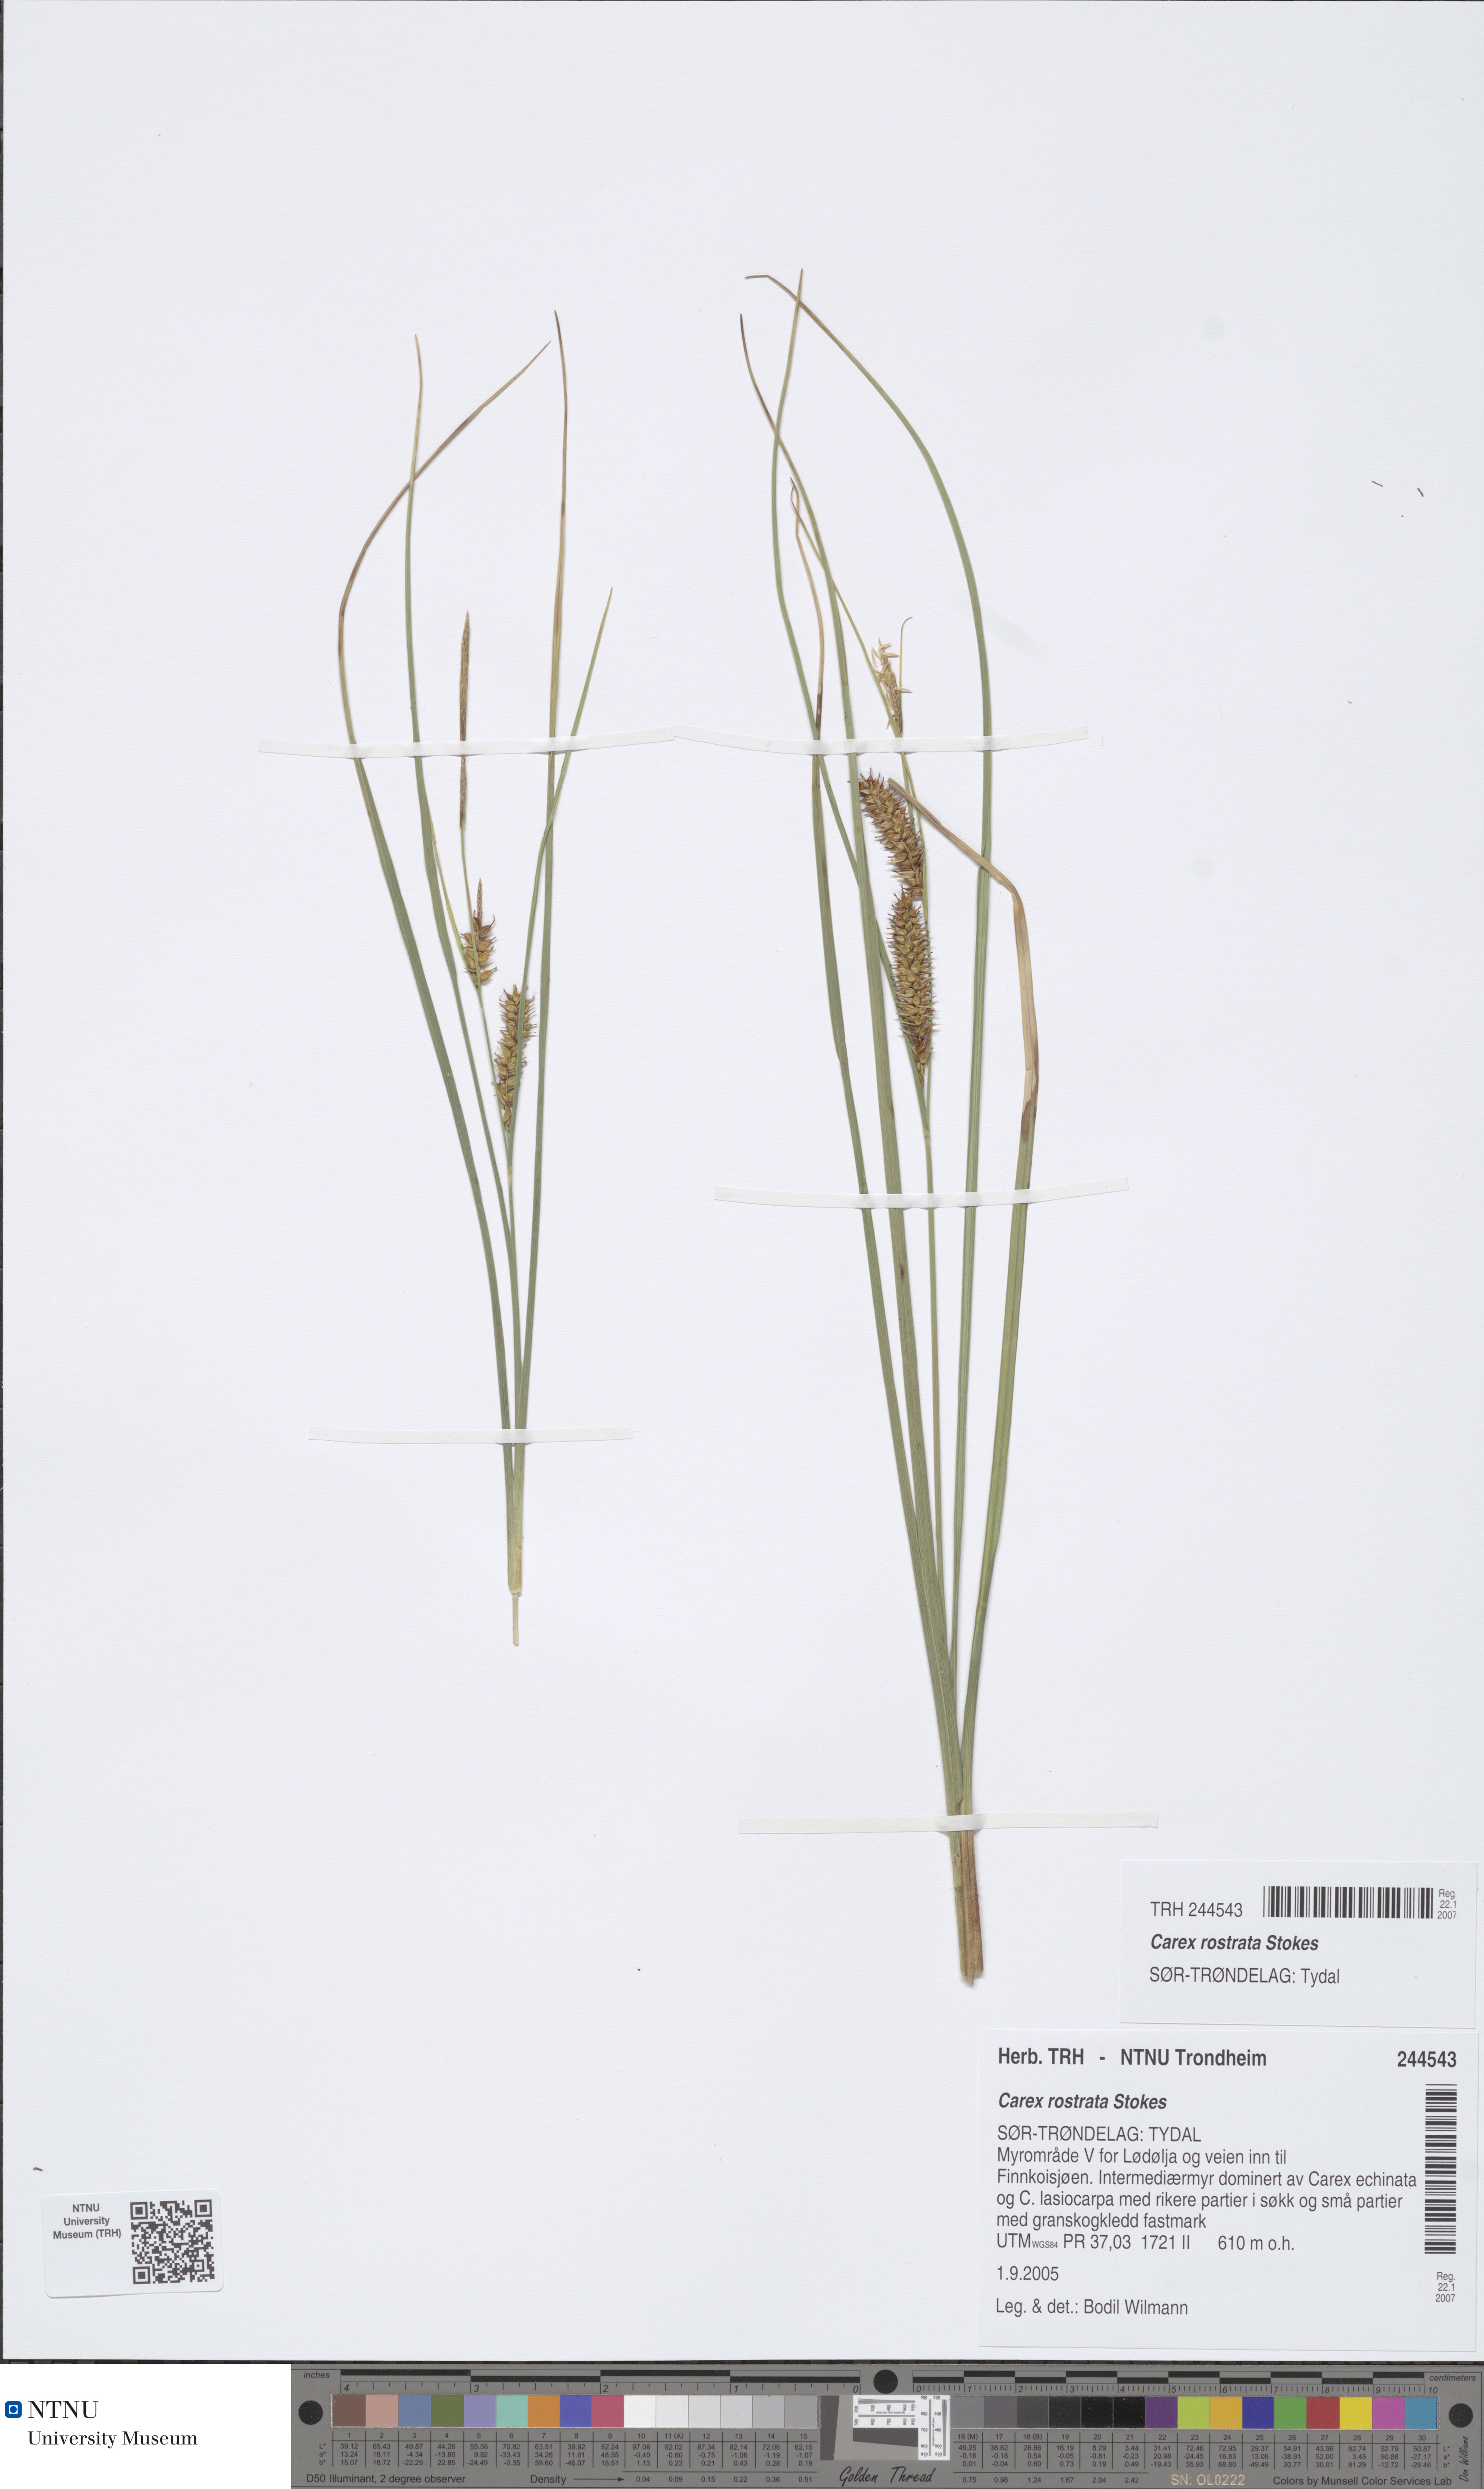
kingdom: Plantae
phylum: Tracheophyta
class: Liliopsida
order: Poales
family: Cyperaceae
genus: Carex
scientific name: Carex rostrata
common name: Bottle sedge
